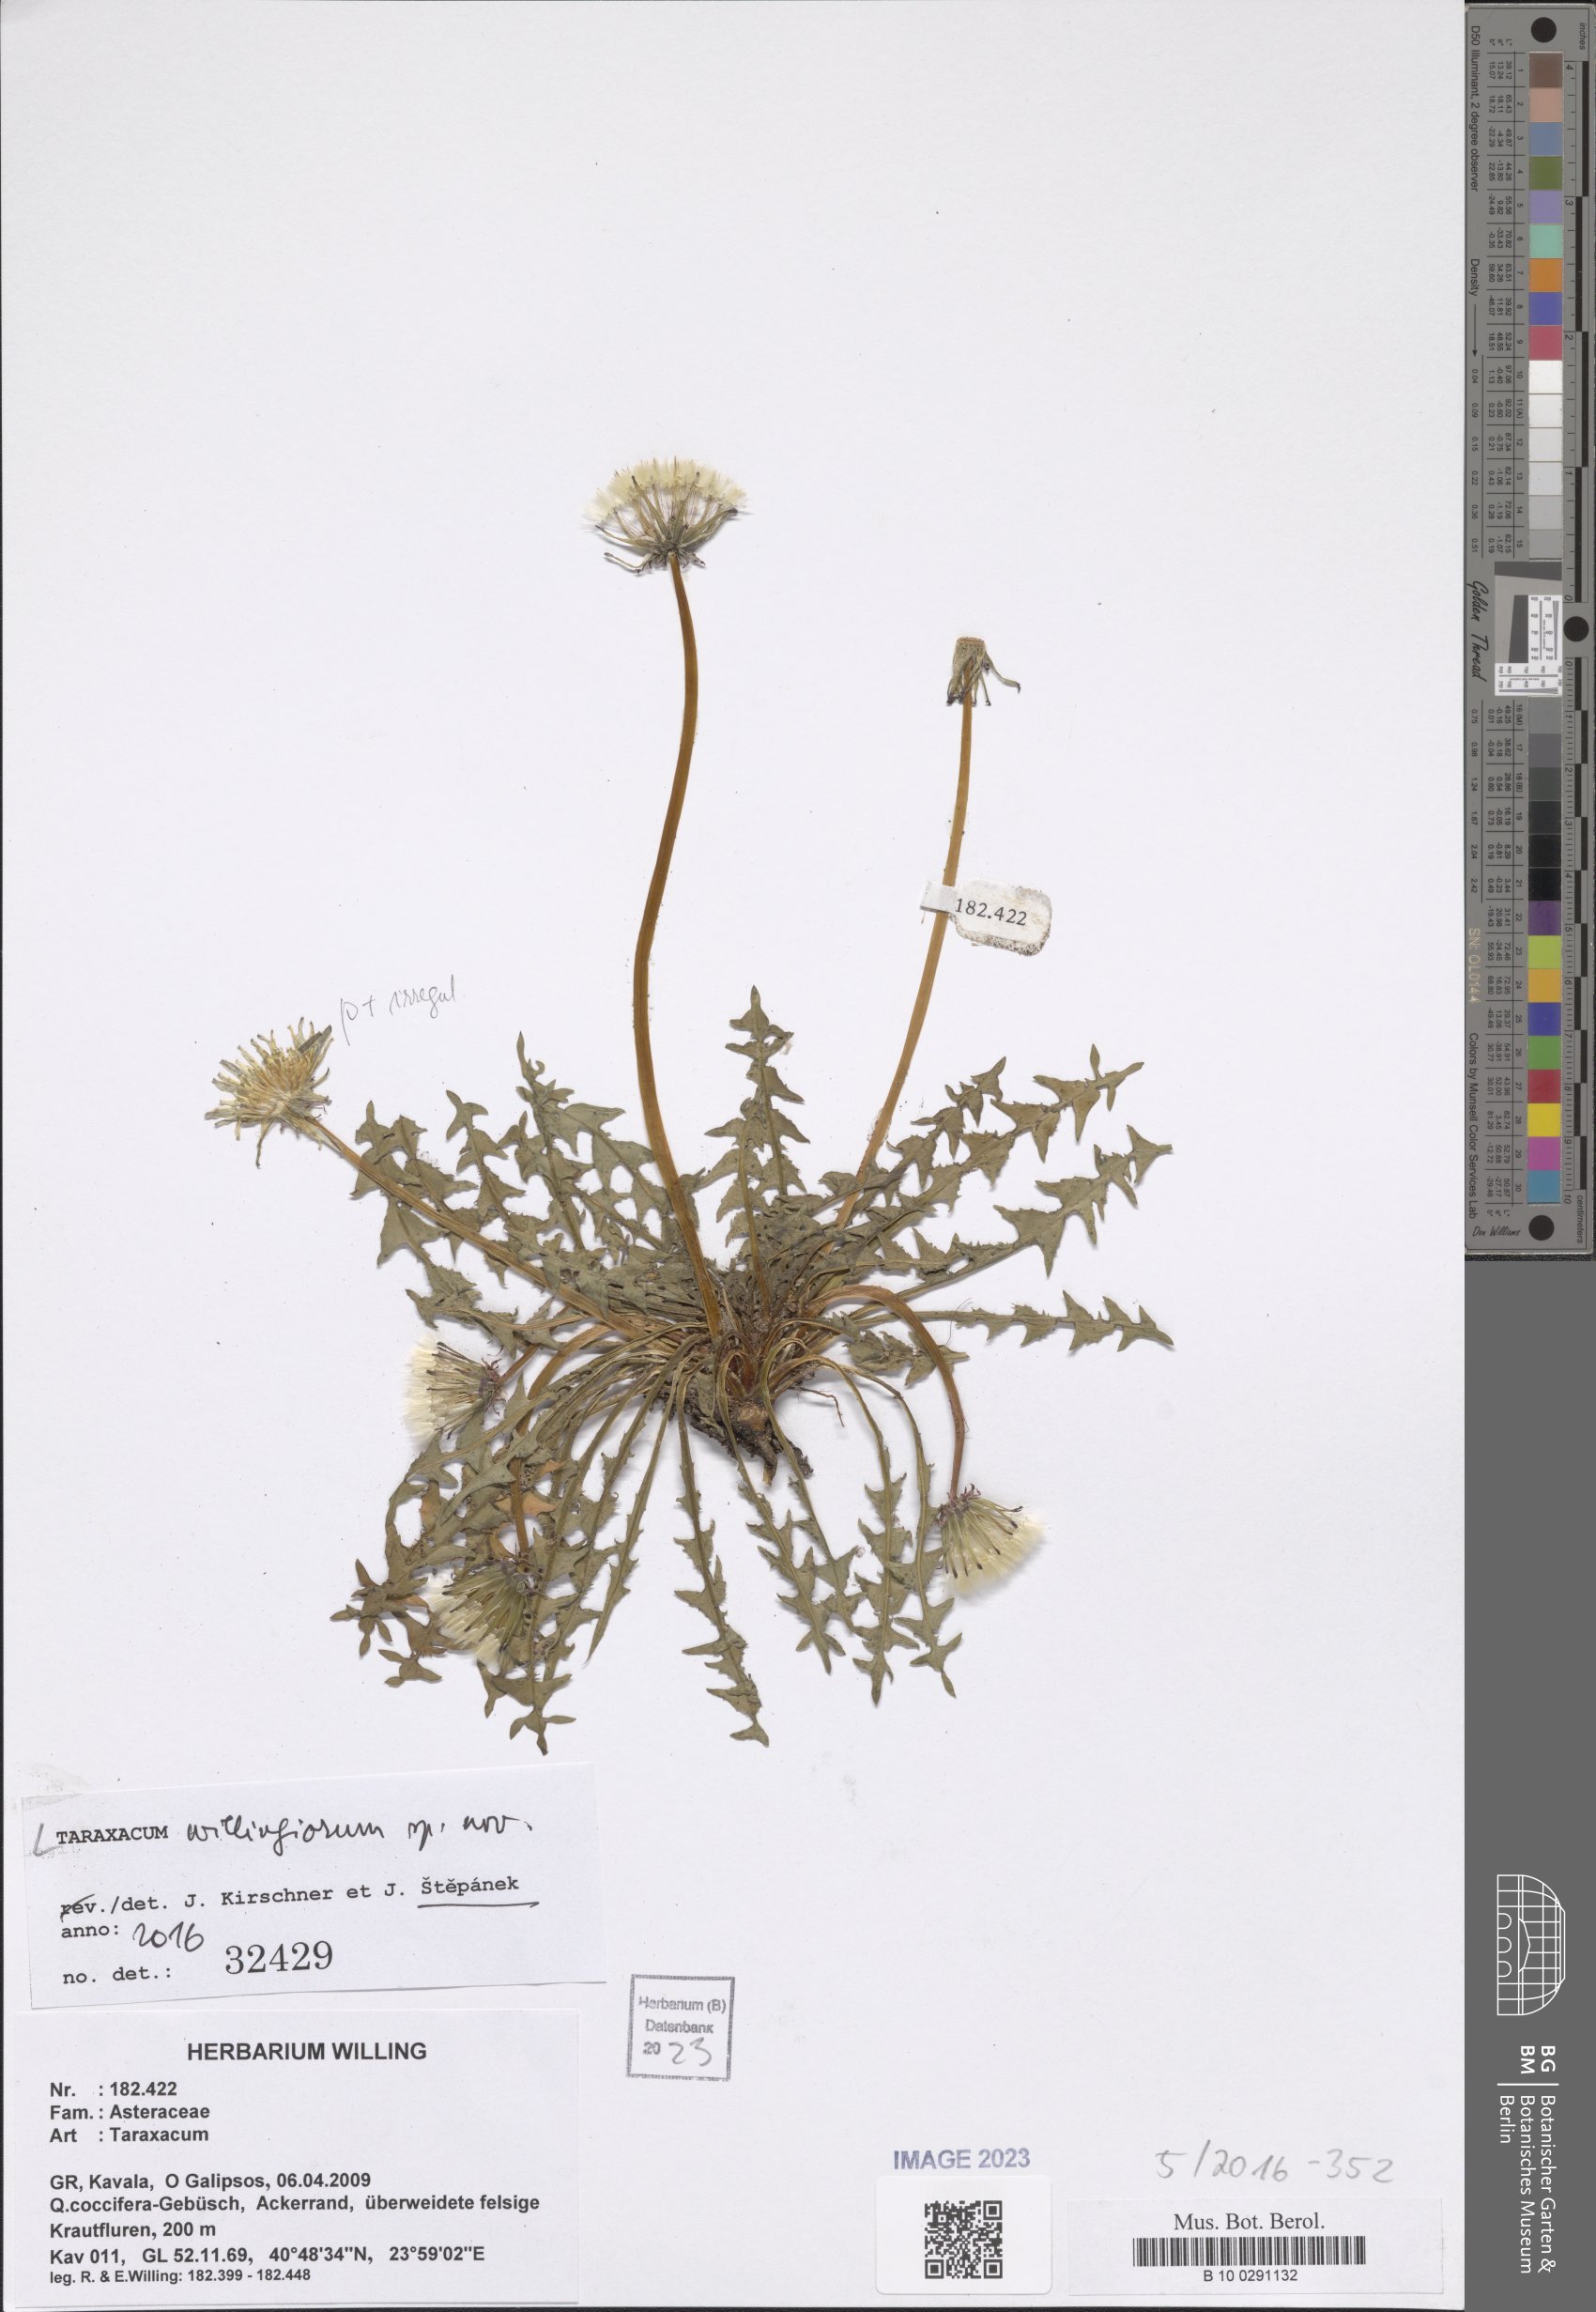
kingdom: Plantae
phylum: Tracheophyta
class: Magnoliopsida
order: Asterales
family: Asteraceae
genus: Taraxacum
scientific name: Taraxacum
